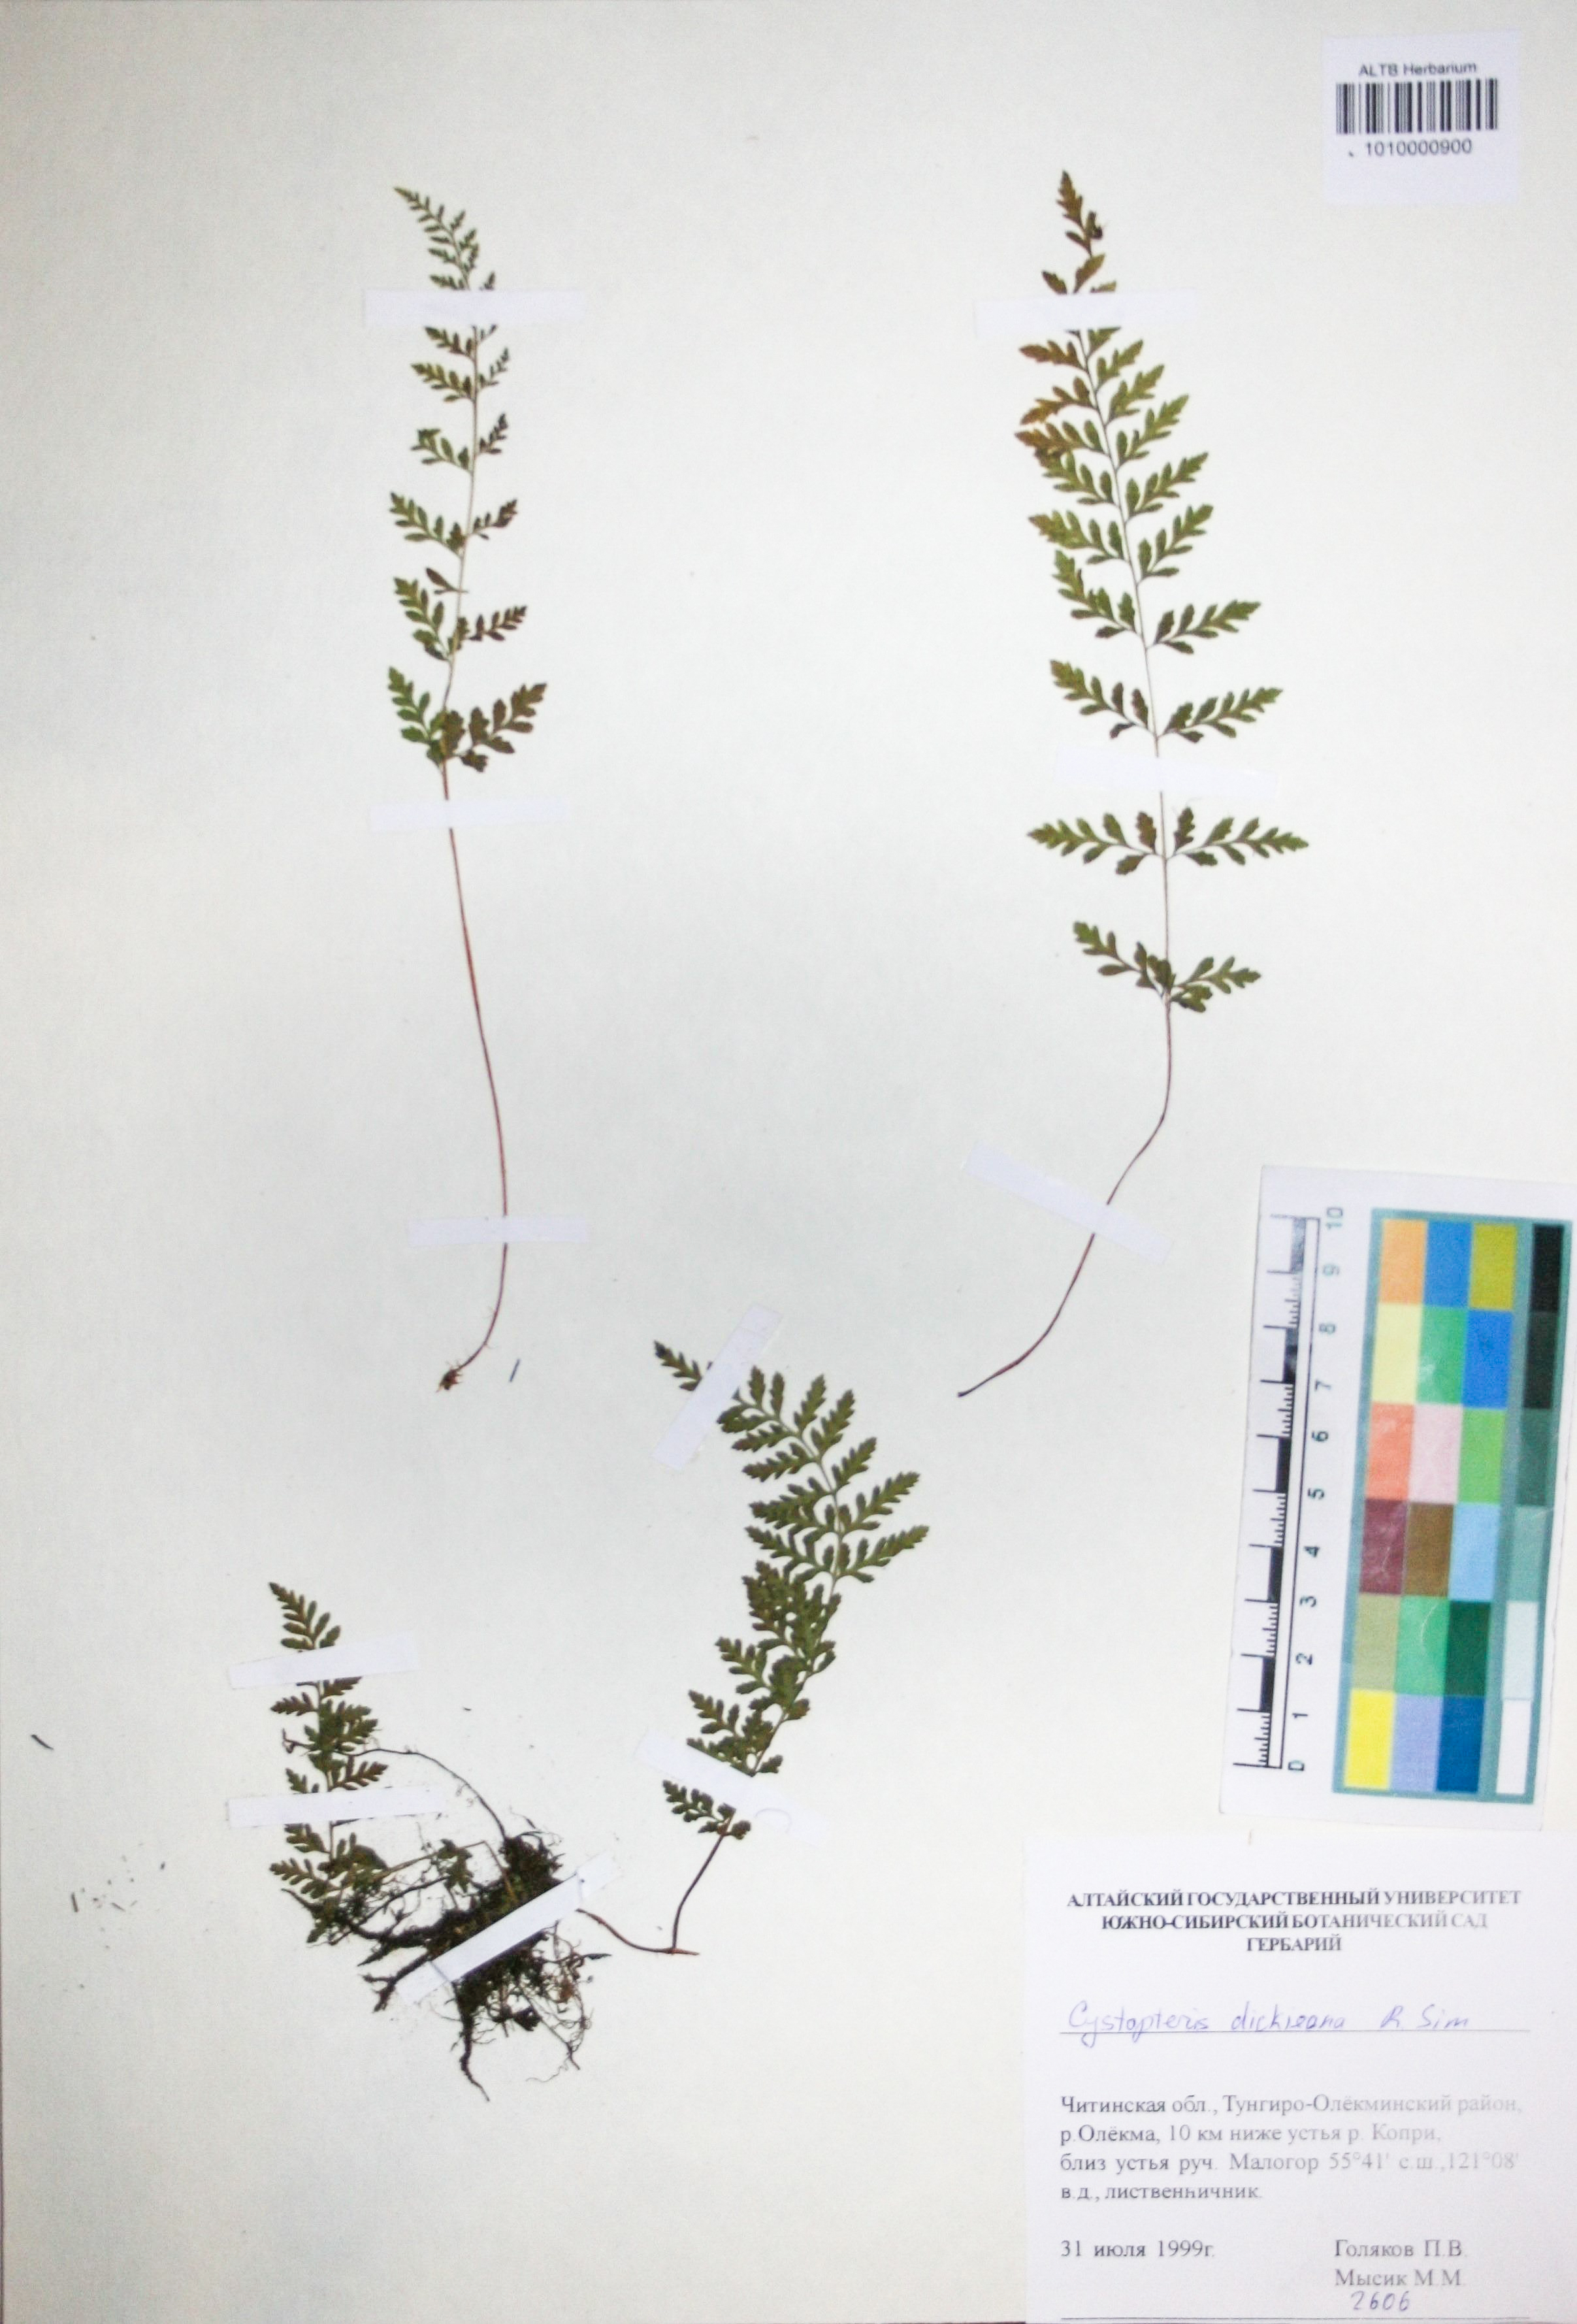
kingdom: Plantae
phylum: Tracheophyta
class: Polypodiopsida
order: Polypodiales
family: Cystopteridaceae
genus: Cystopteris
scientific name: Cystopteris dickieana
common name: Dickie's bladder-fern
